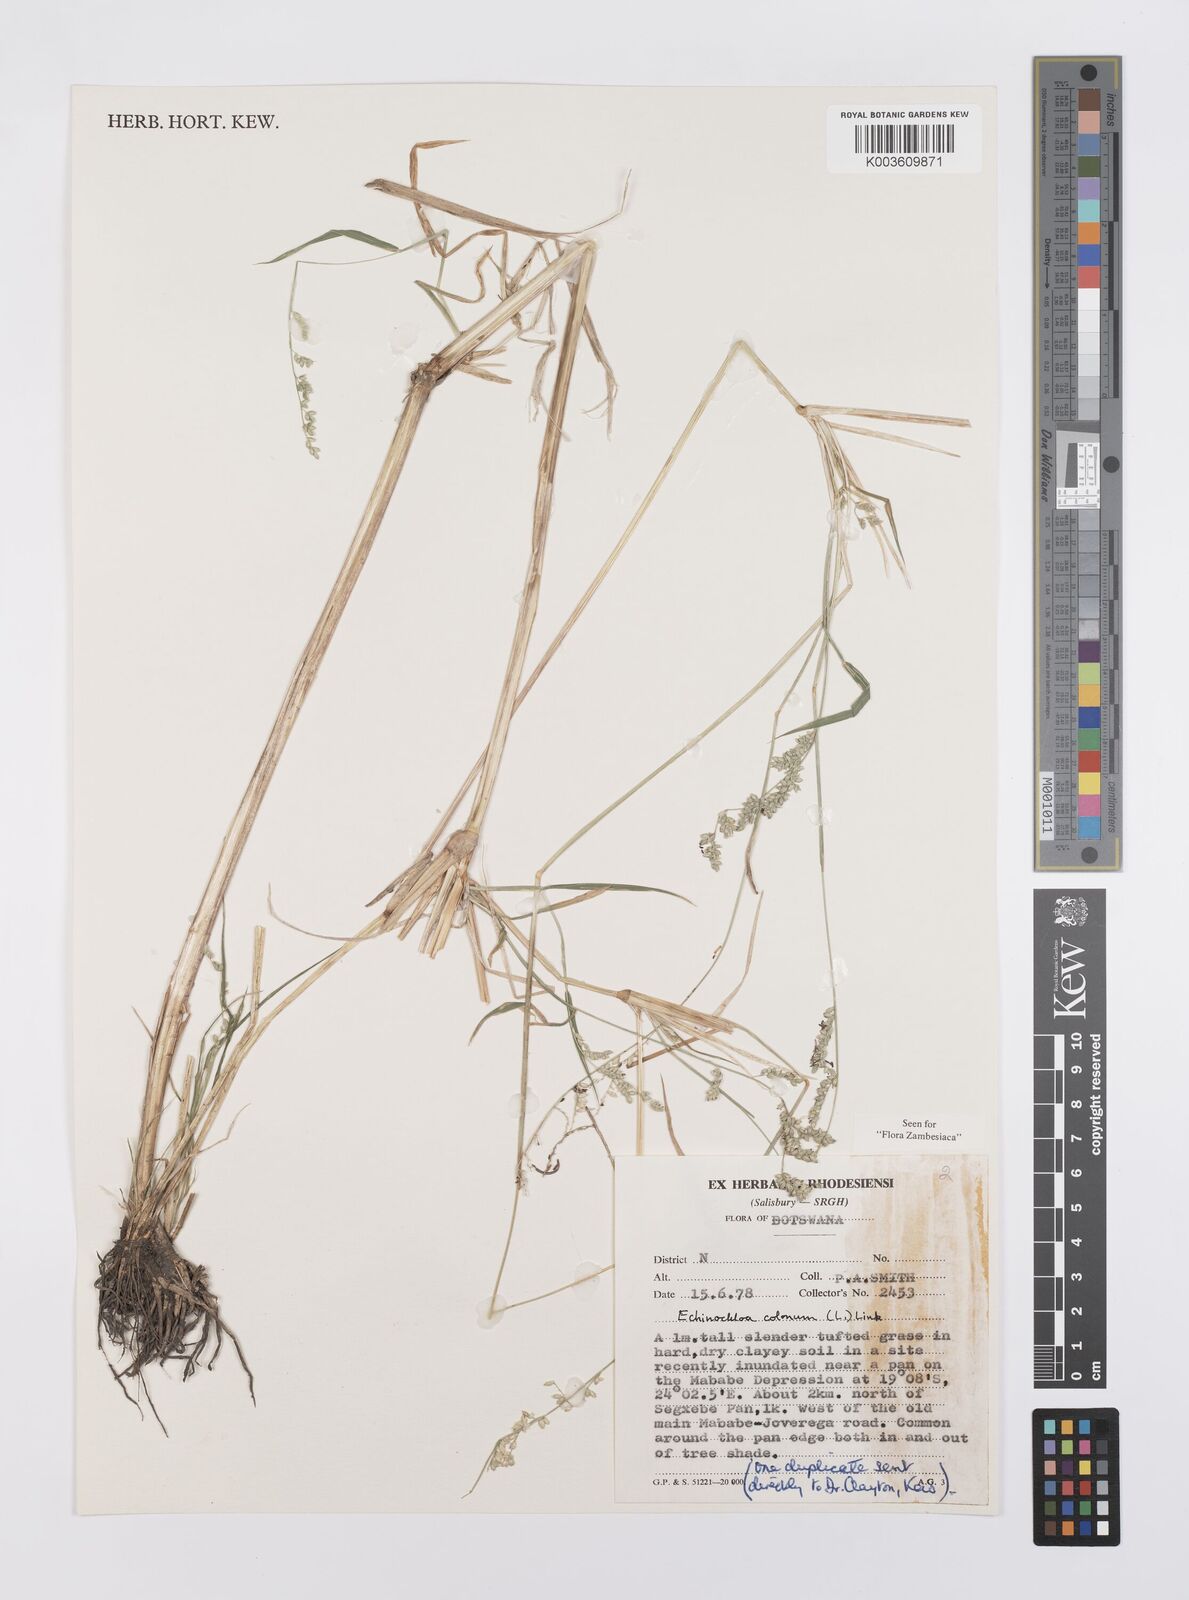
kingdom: Plantae
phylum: Tracheophyta
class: Liliopsida
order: Poales
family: Poaceae
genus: Echinochloa
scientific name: Echinochloa colonum
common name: Jungle rice
